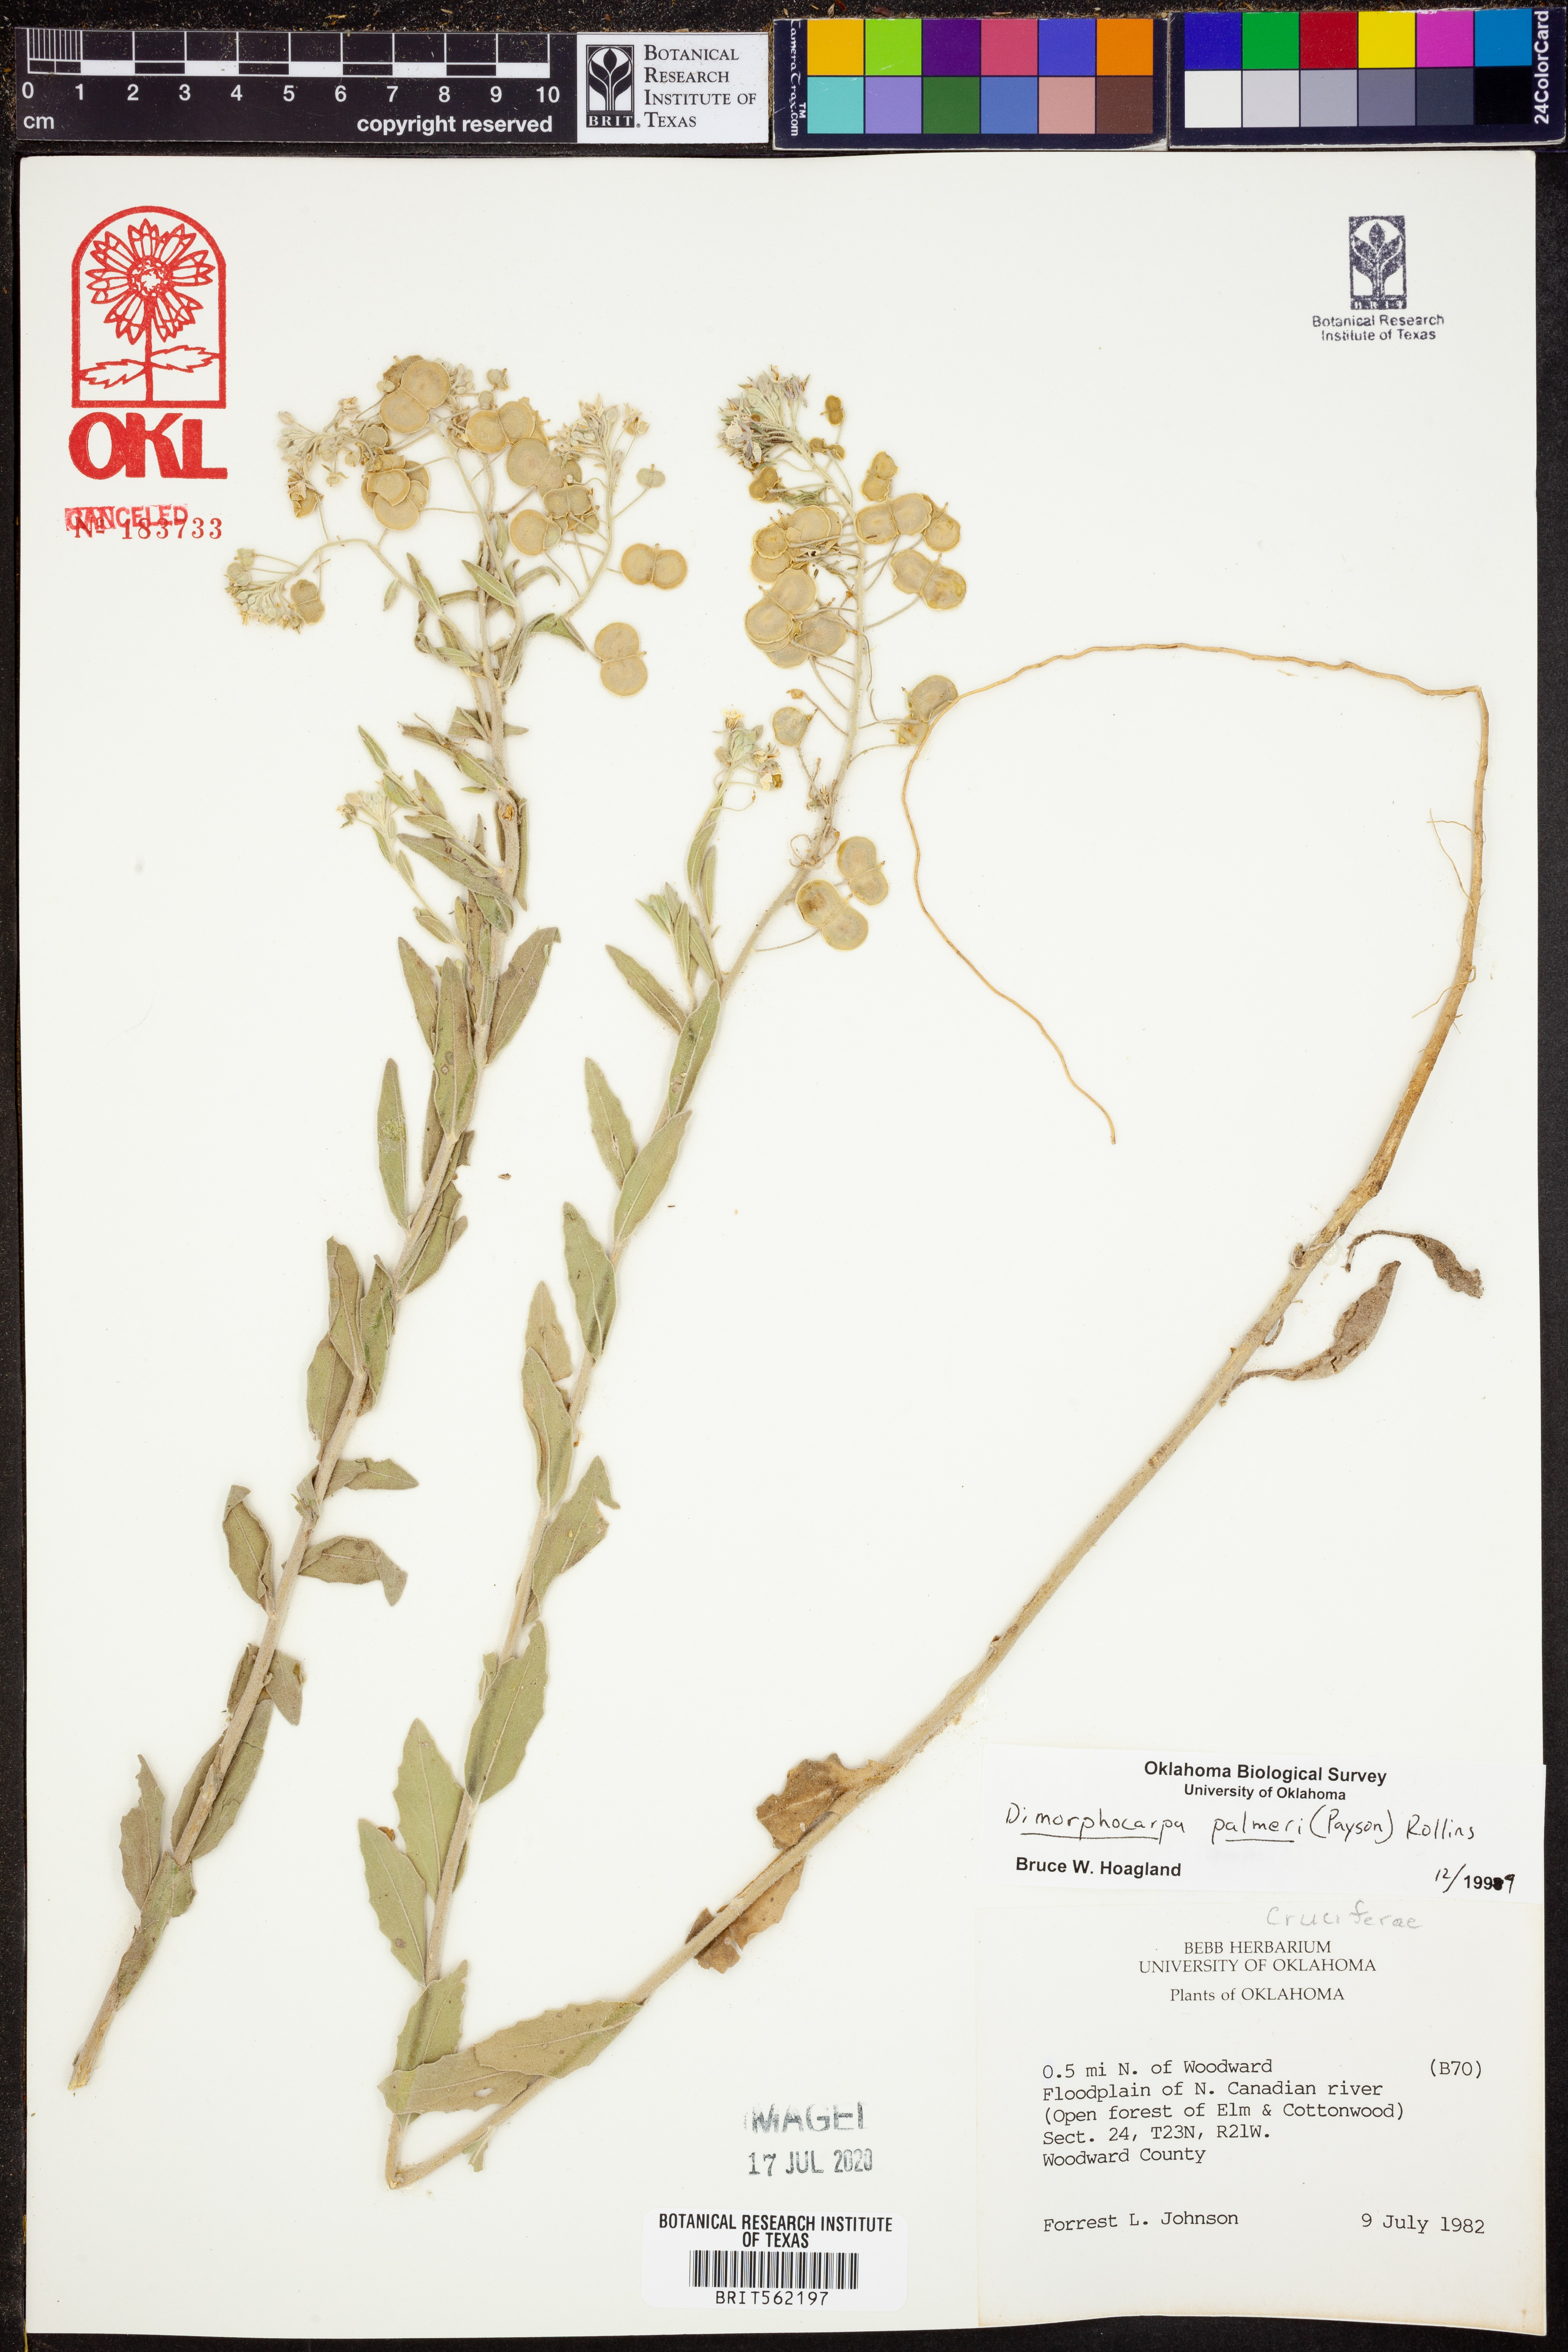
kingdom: Plantae
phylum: Tracheophyta
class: Magnoliopsida
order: Brassicales
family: Brassicaceae
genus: Dimorphocarpa
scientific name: Dimorphocarpa candicans
